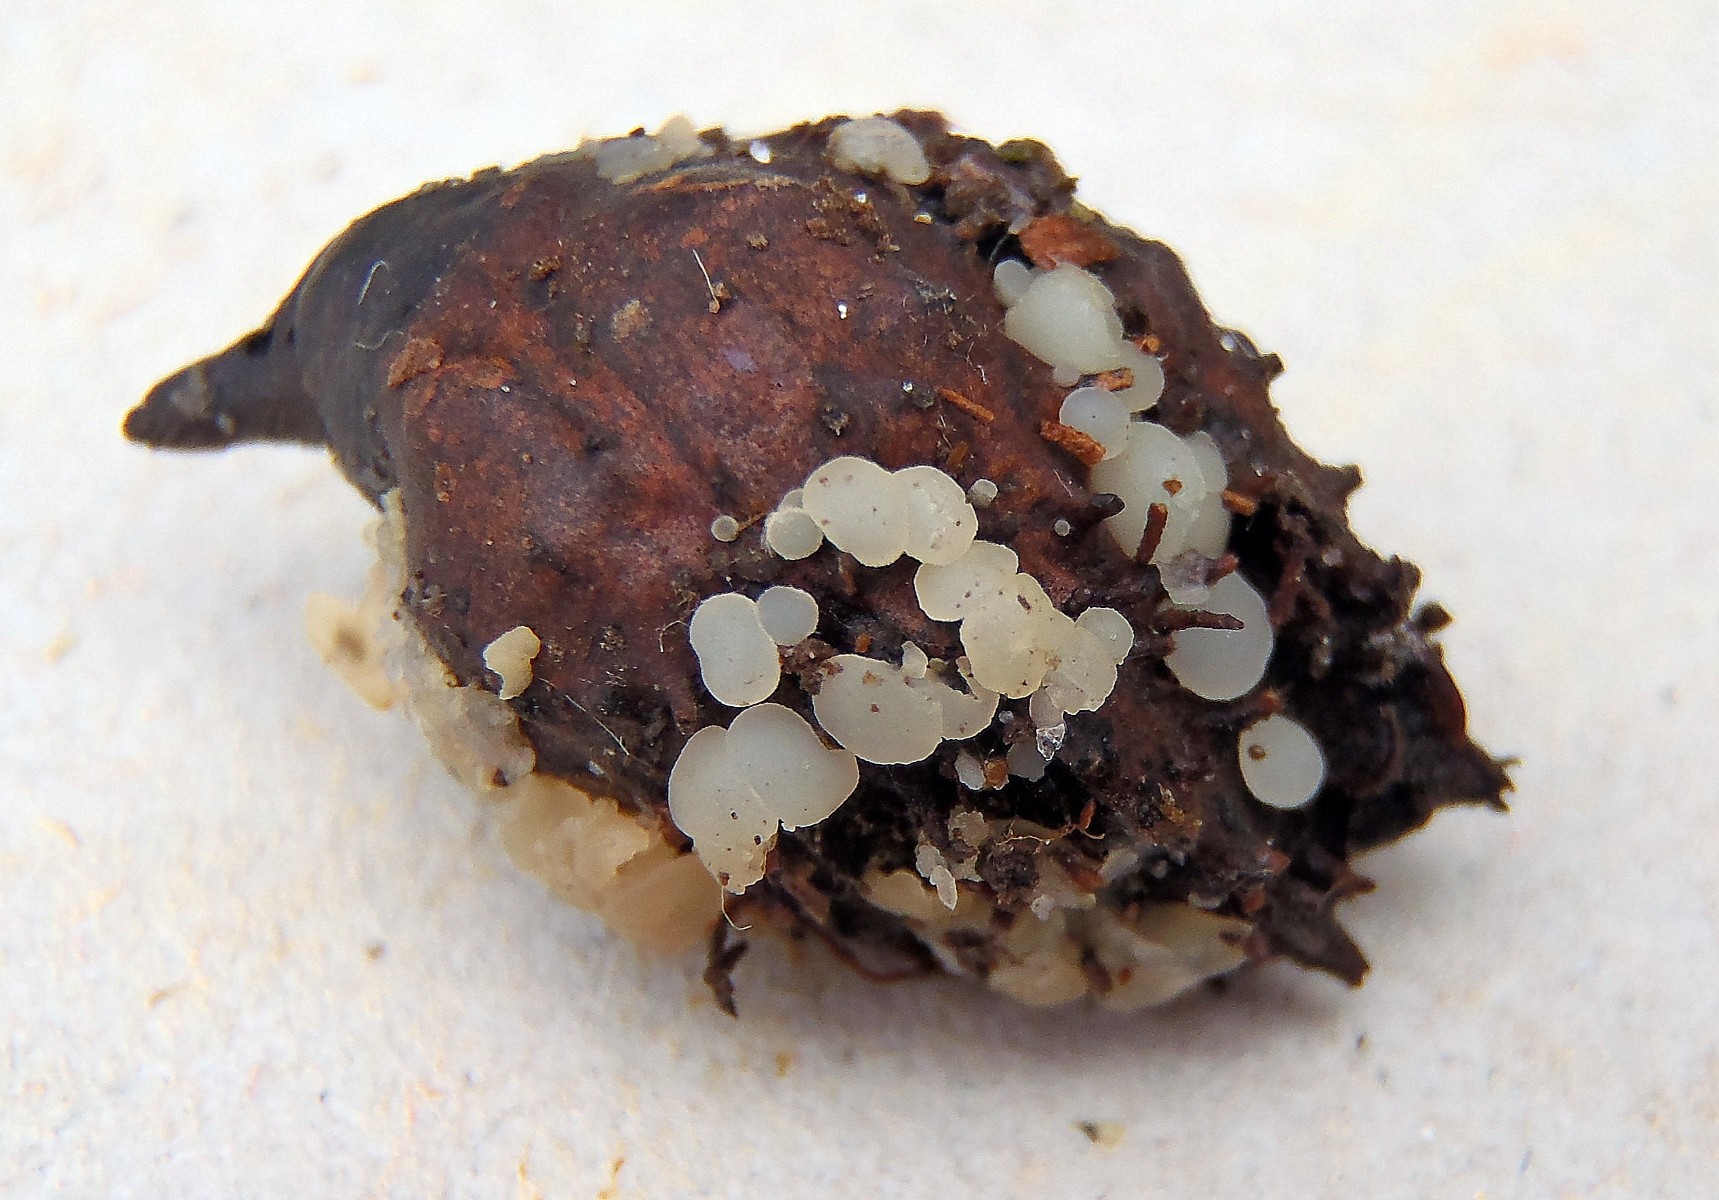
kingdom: Fungi
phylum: Ascomycota
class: Leotiomycetes
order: Helotiales
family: Helotiaceae
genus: Hymenoscyphus
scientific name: Hymenoscyphus fagineus
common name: vellugtende stilkskive
